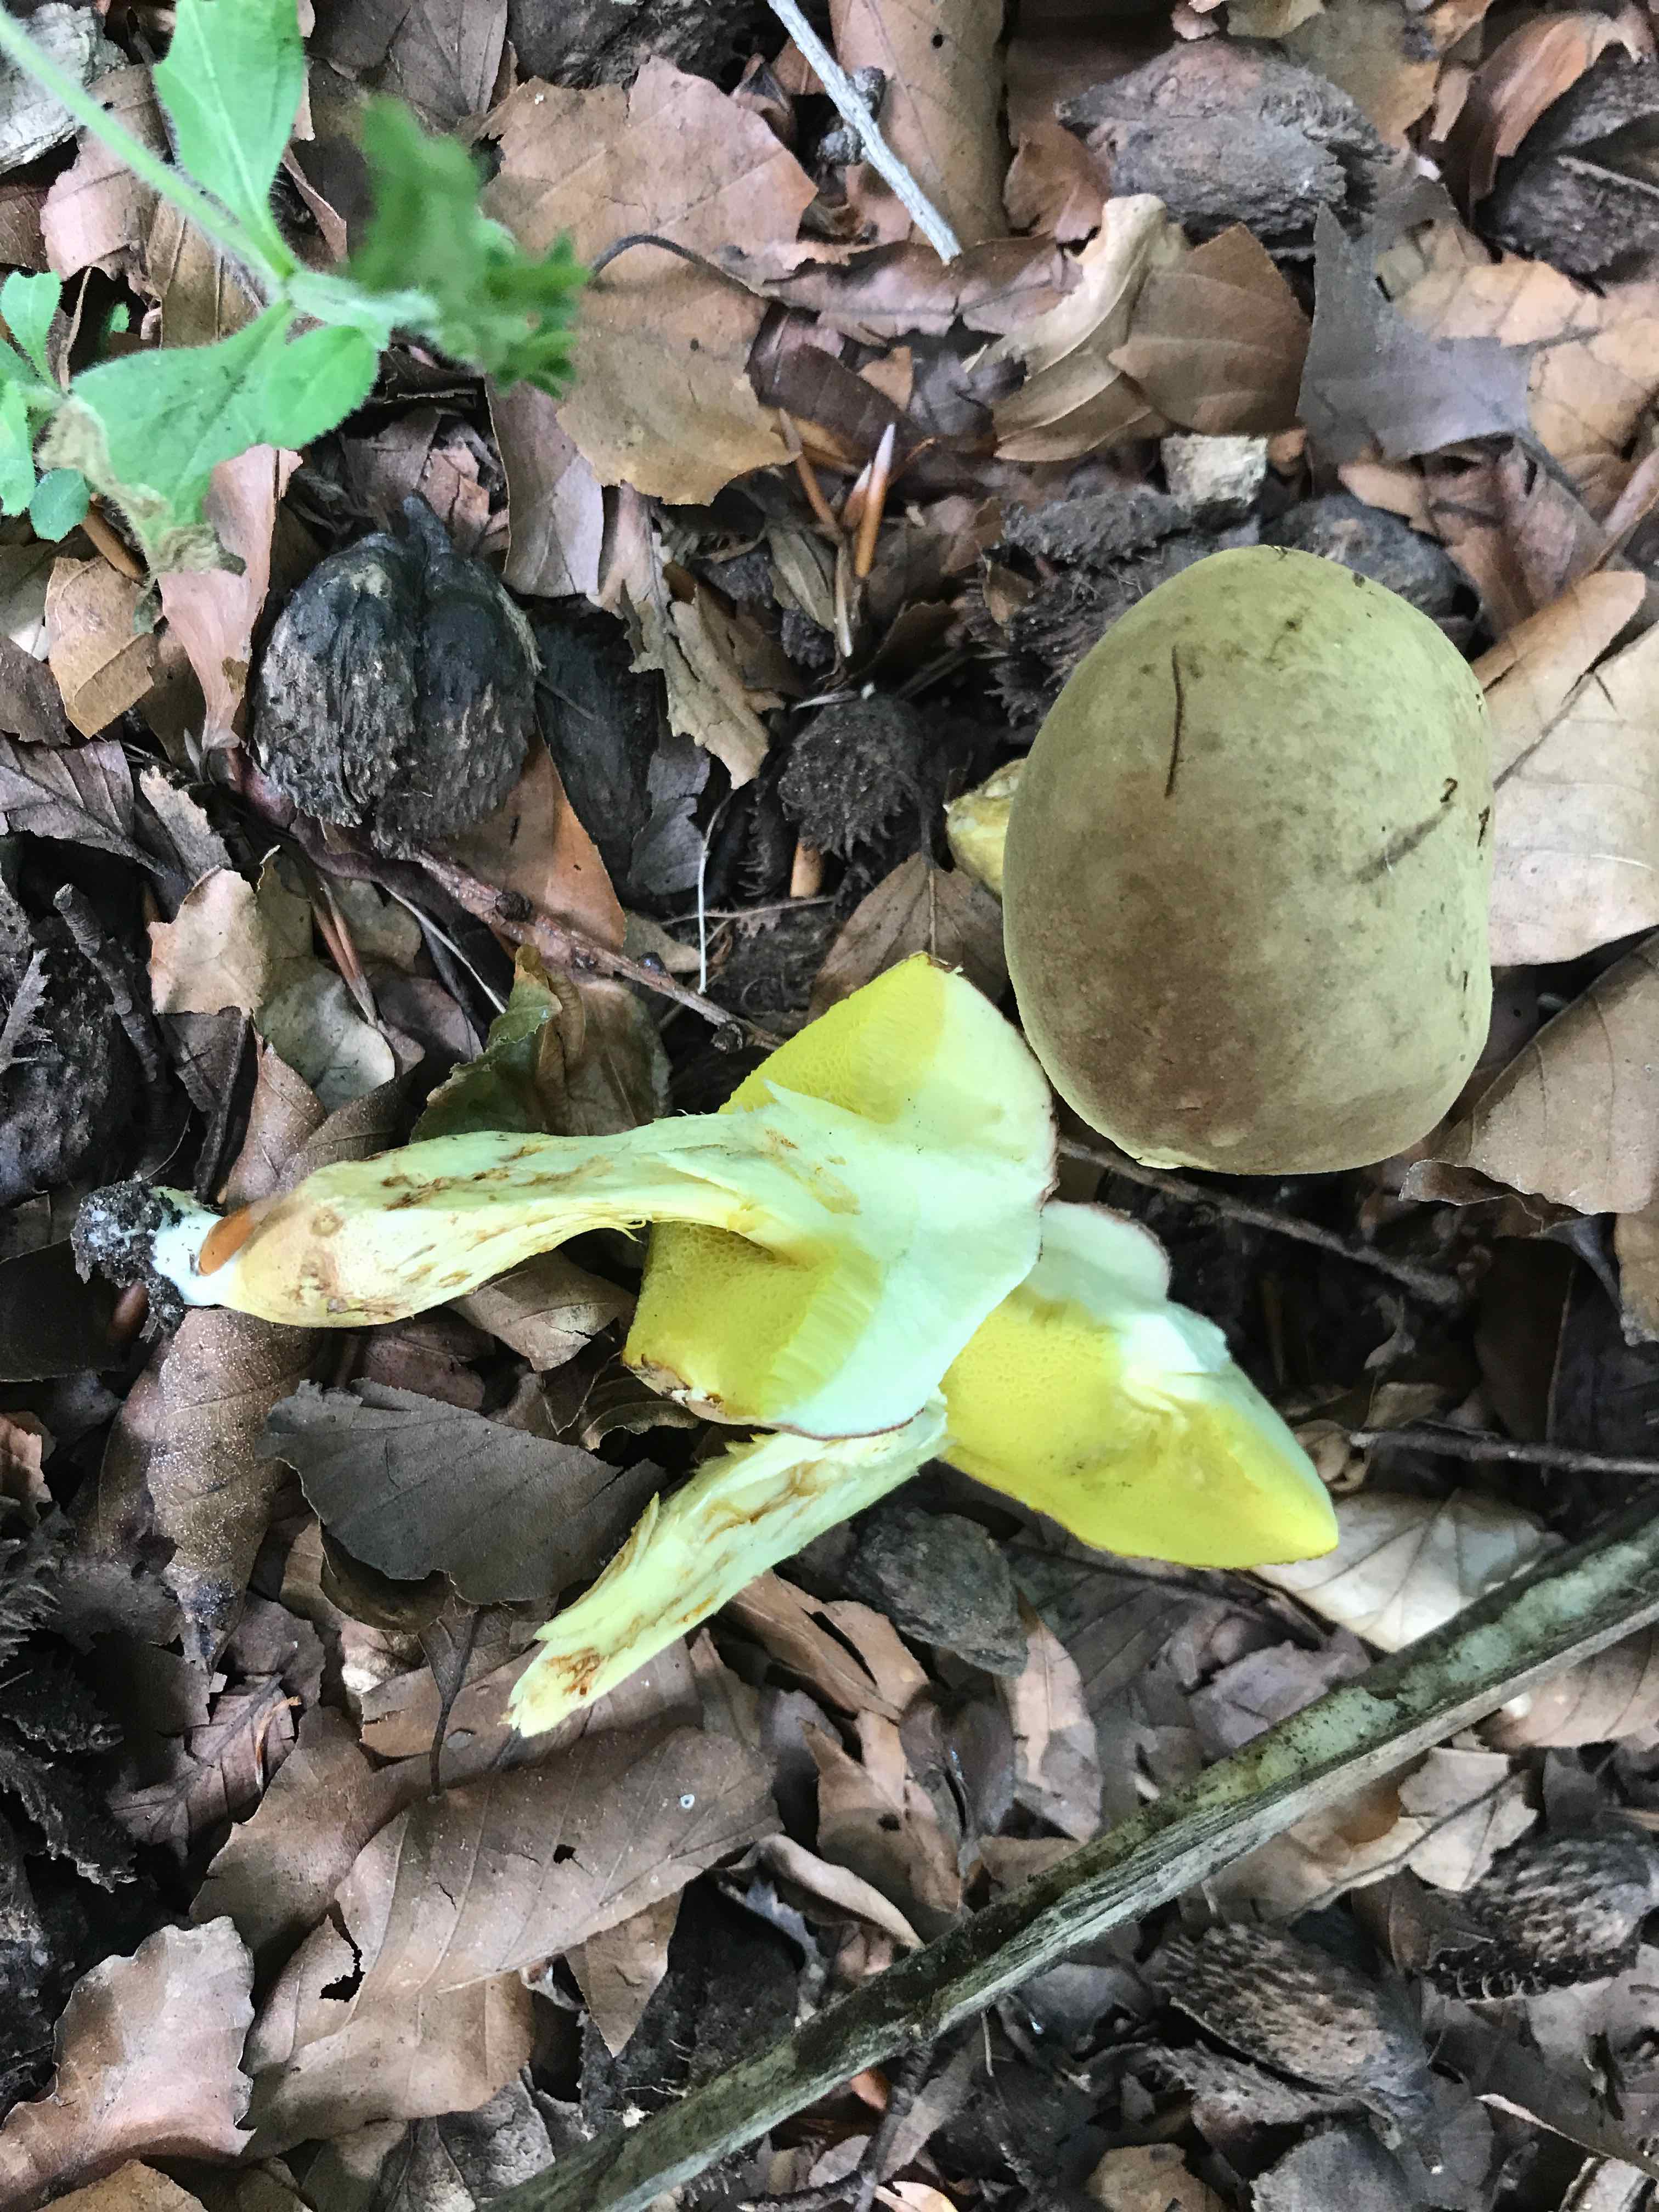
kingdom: Fungi
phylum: Basidiomycota
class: Agaricomycetes
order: Boletales
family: Boletaceae
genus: Xerocomus
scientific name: Xerocomus subtomentosus
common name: filtet rørhat
